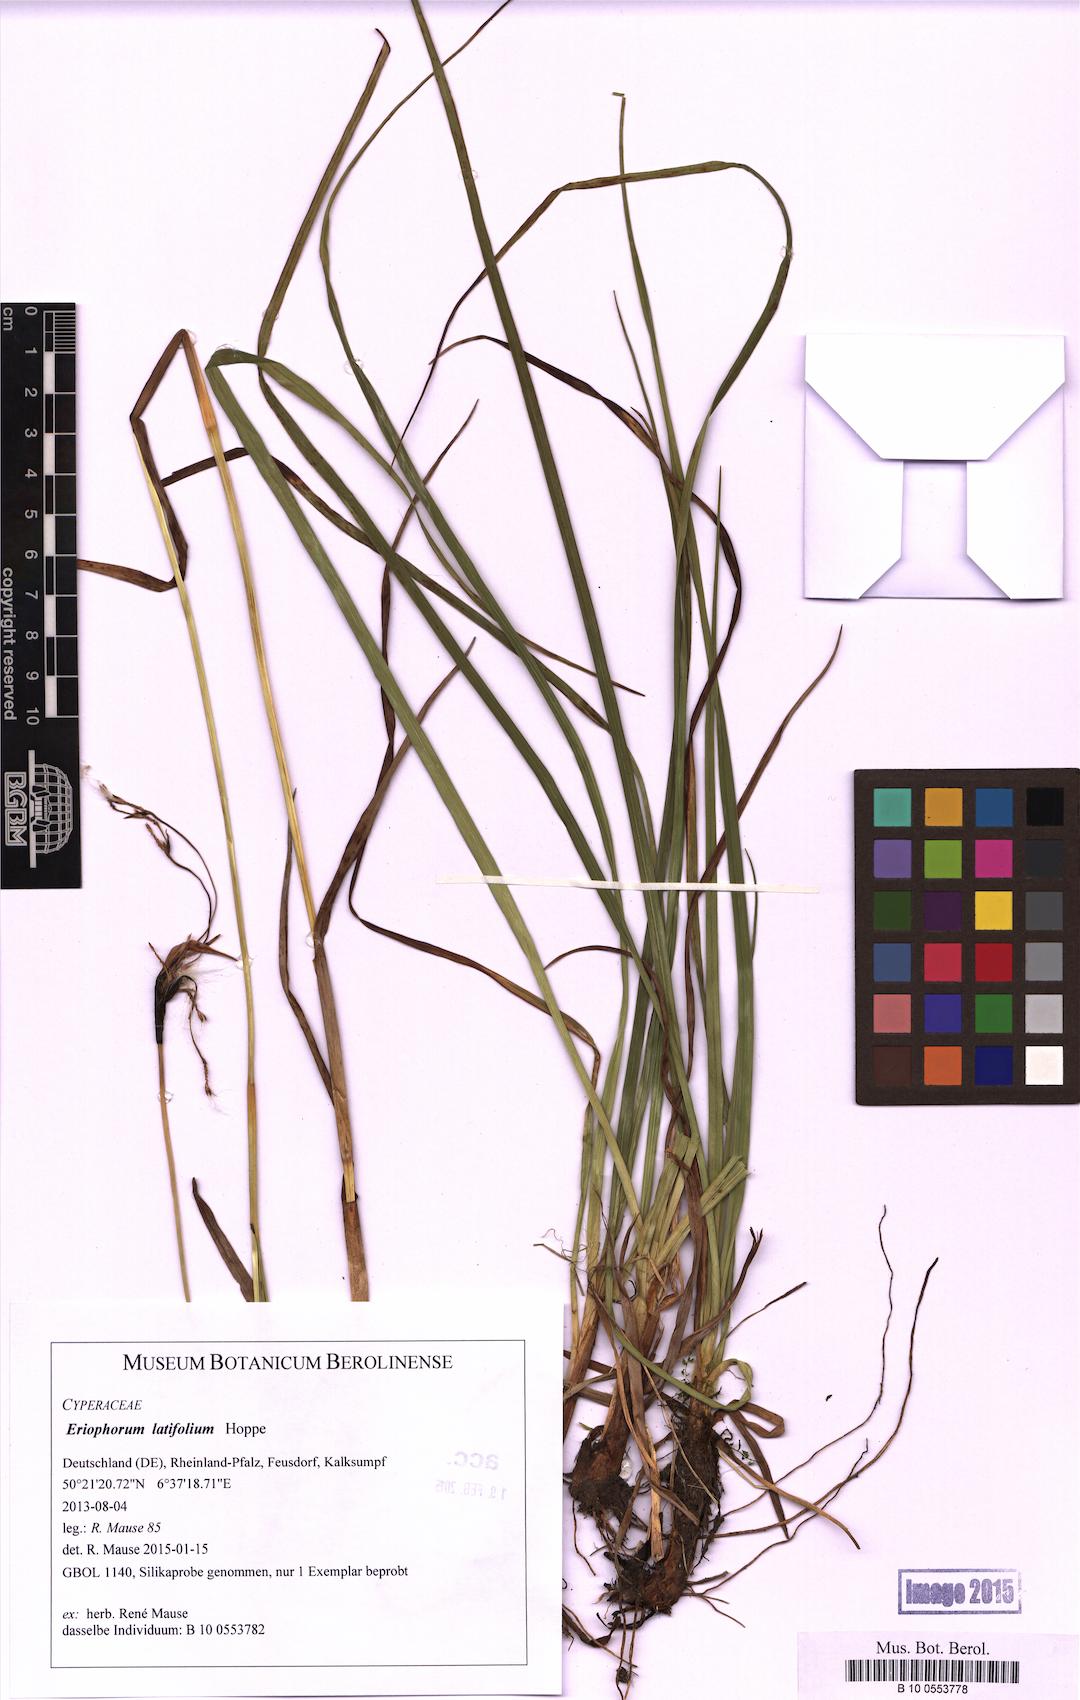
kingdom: Plantae
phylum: Tracheophyta
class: Liliopsida
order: Poales
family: Cyperaceae
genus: Eriophorum
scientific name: Eriophorum latifolium
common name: Broad-leaved cottongrass
